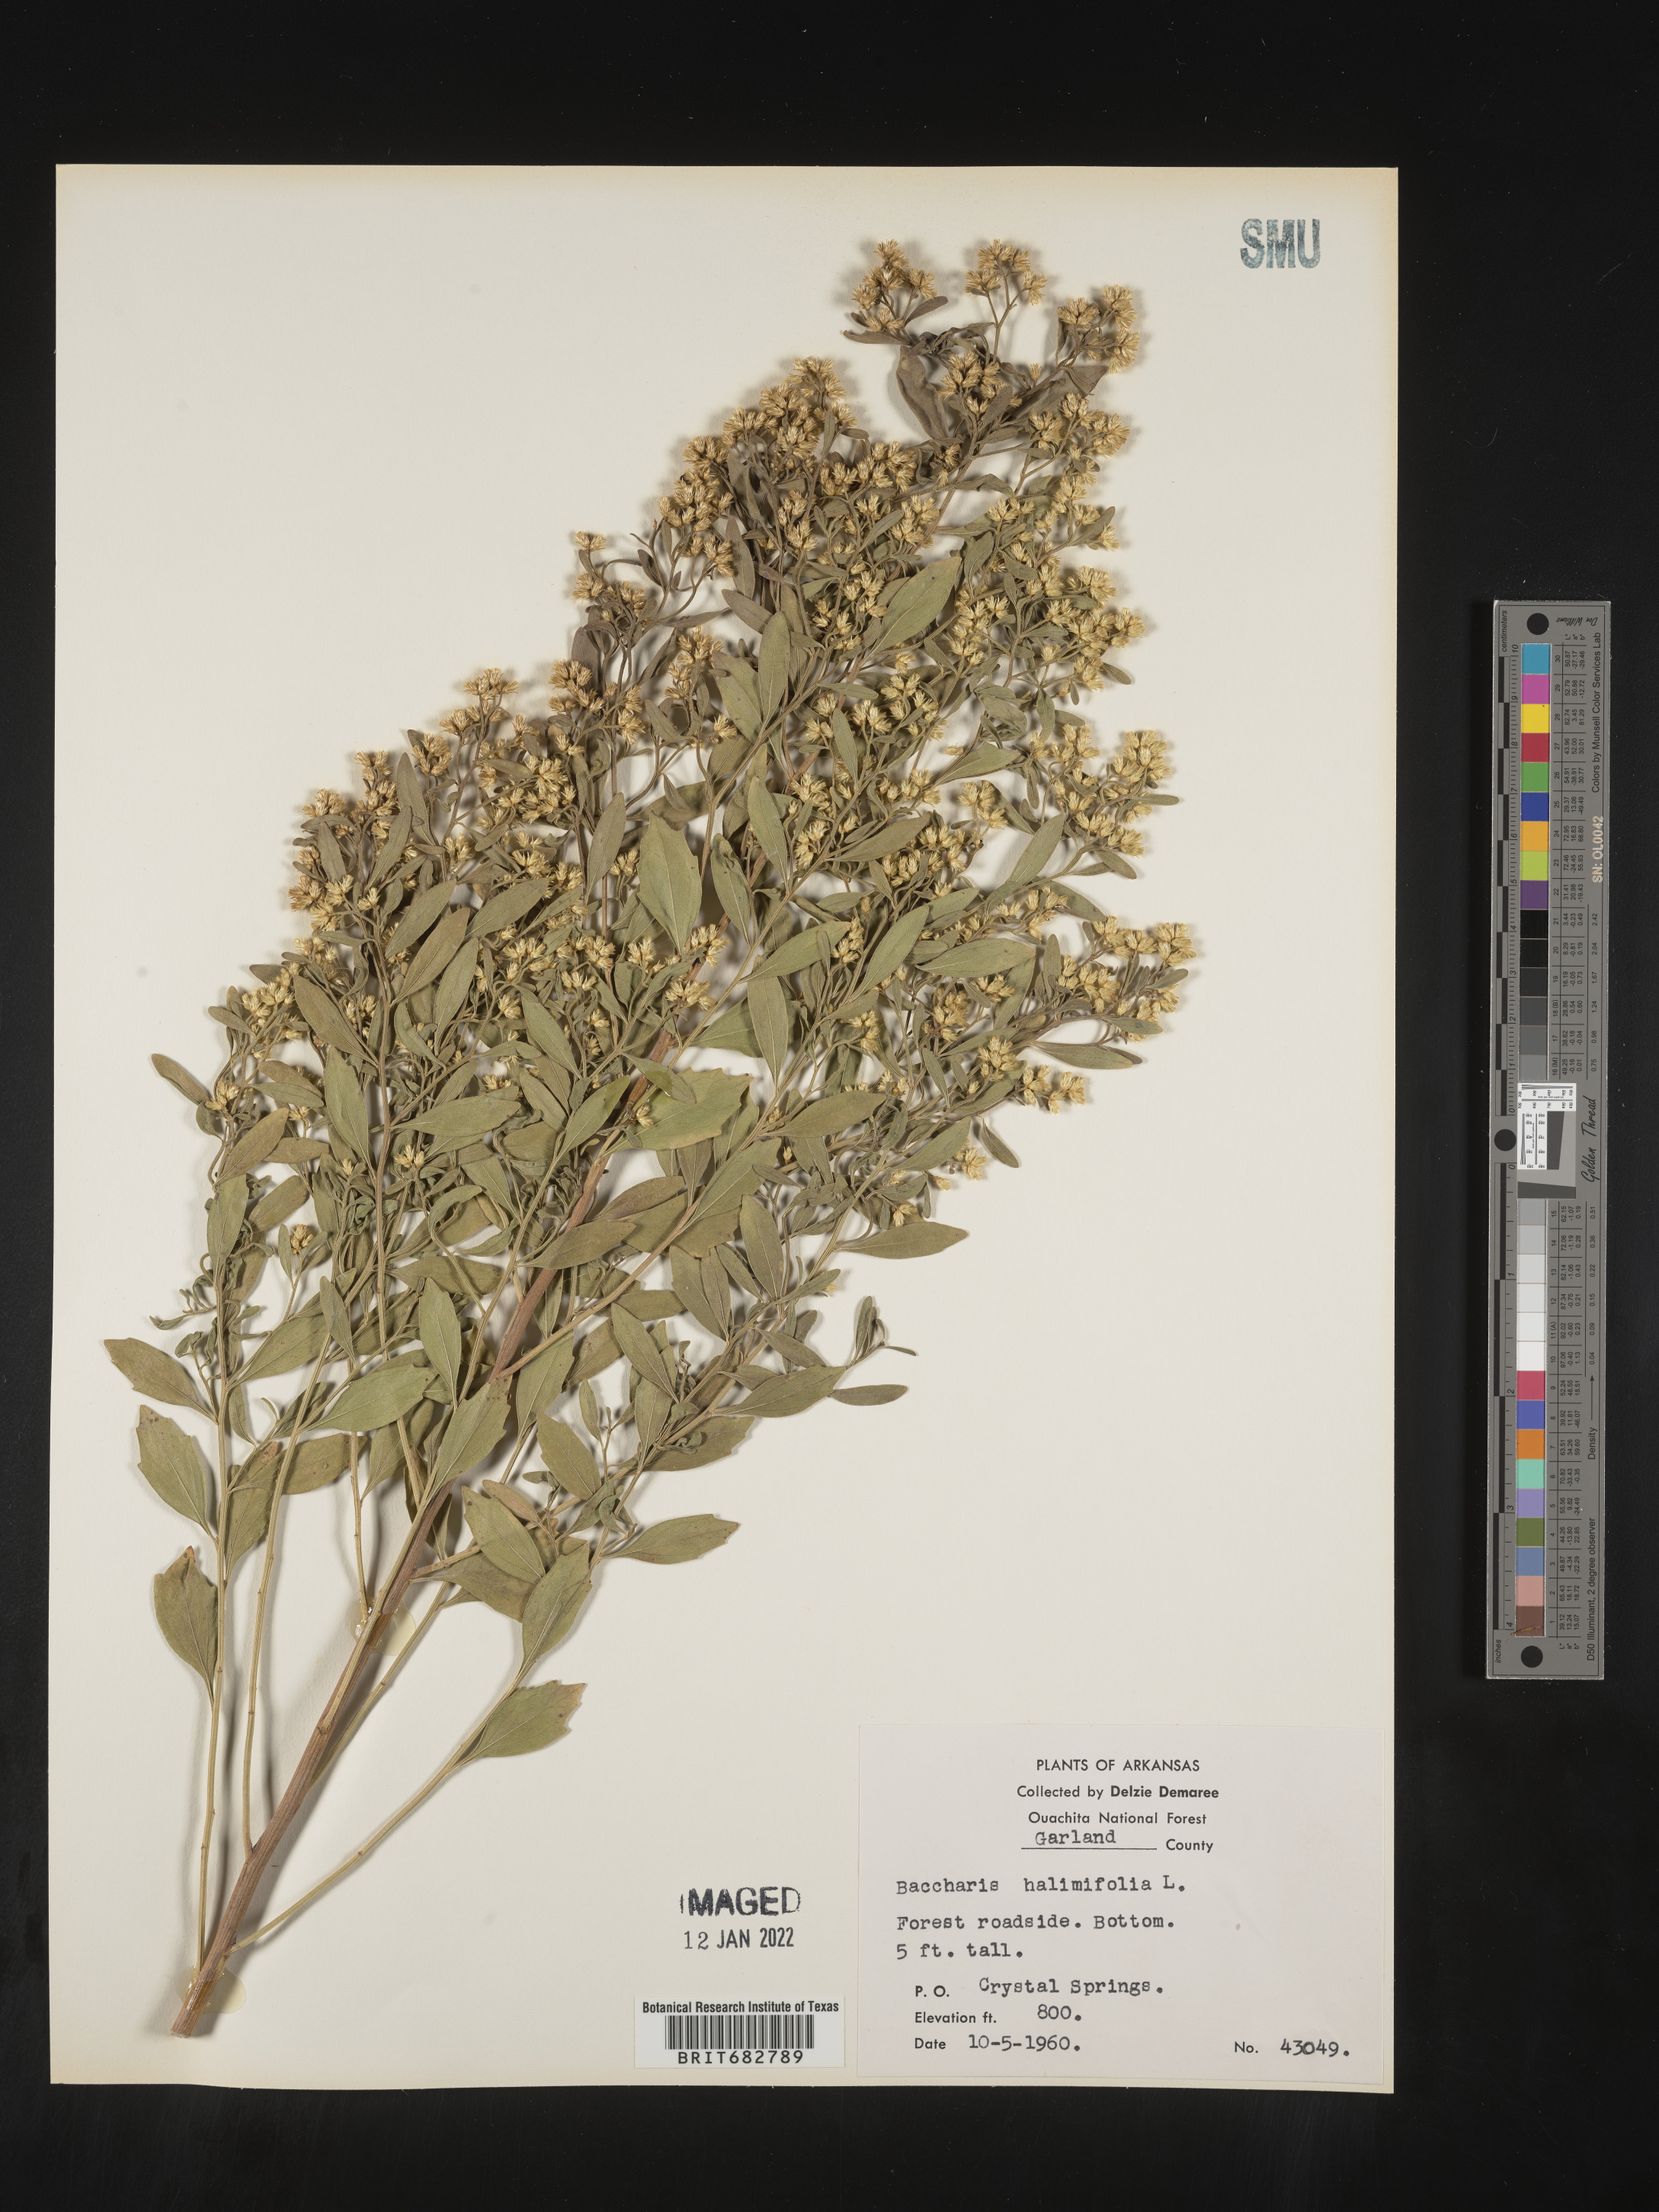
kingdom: Plantae
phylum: Tracheophyta
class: Magnoliopsida
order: Asterales
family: Asteraceae
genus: Nidorella
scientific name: Nidorella ivifolia
